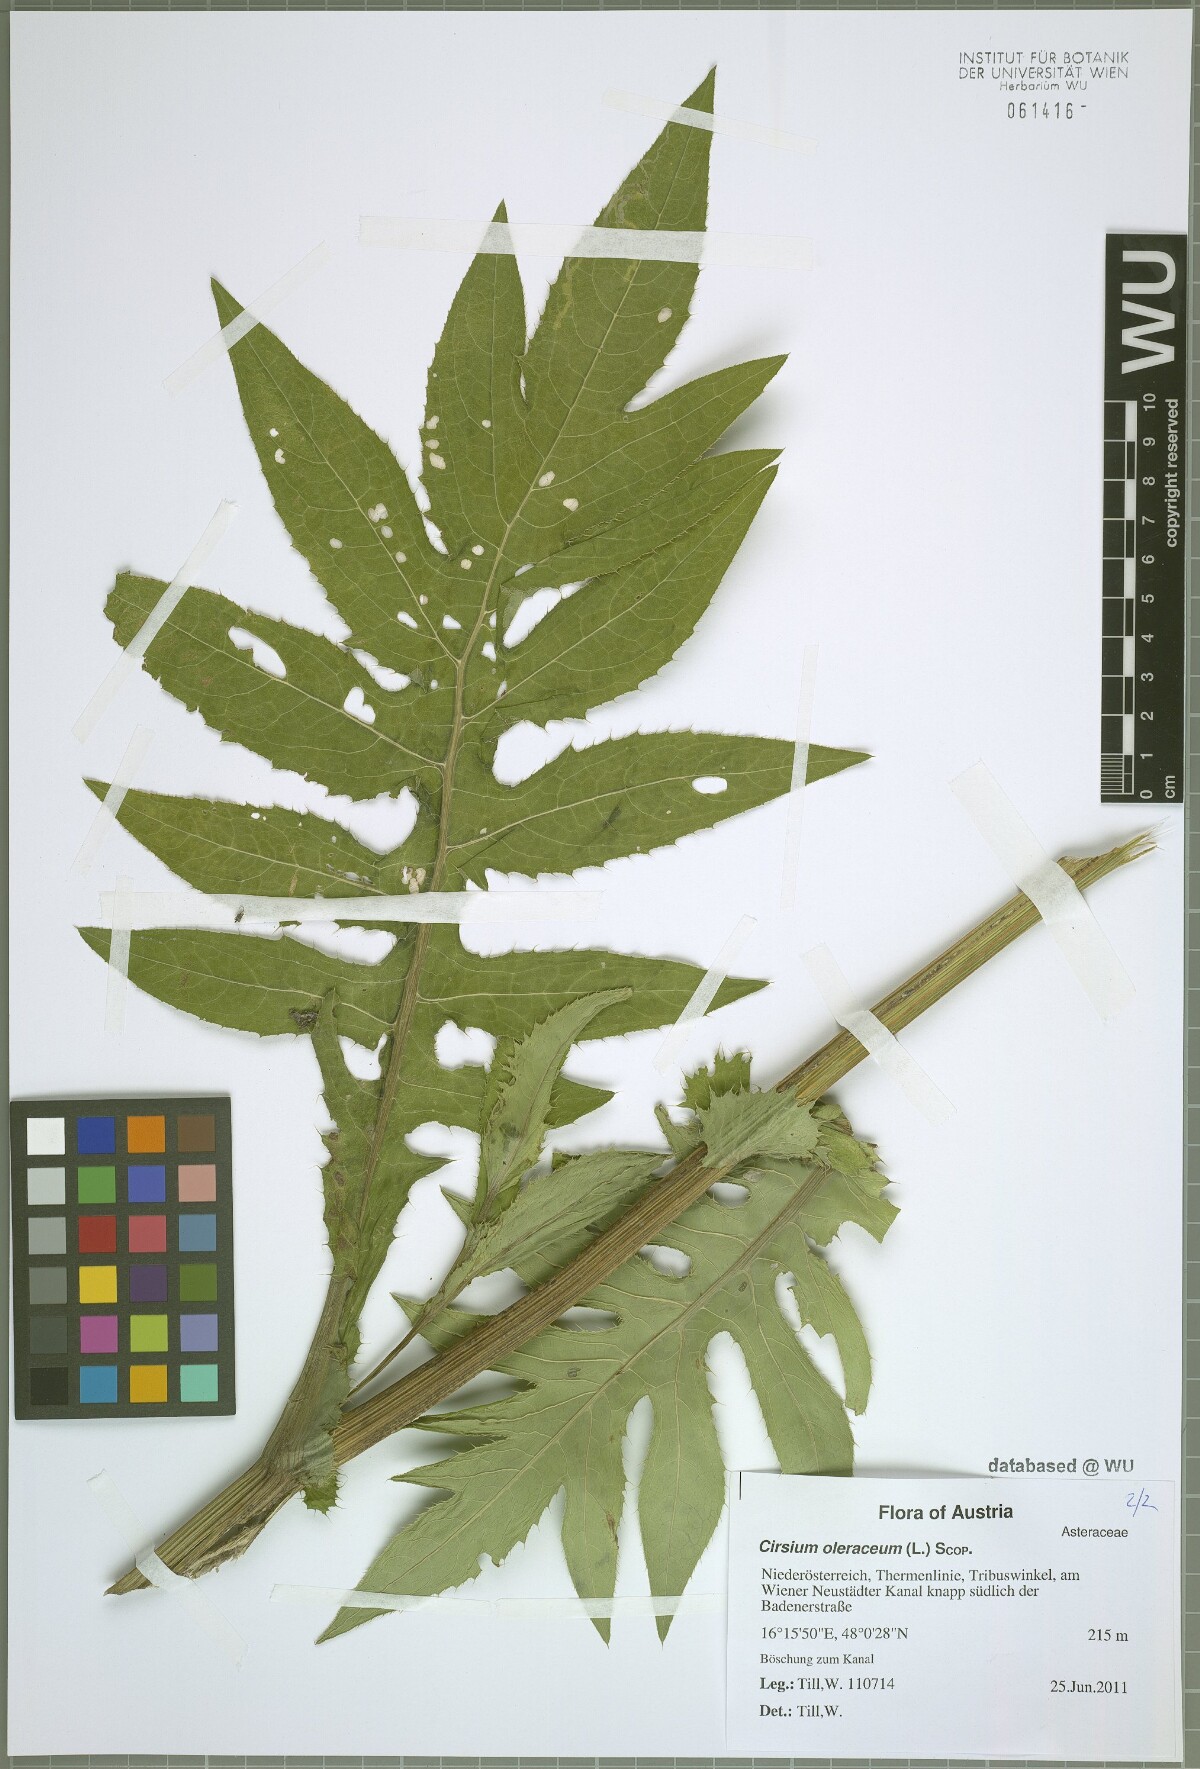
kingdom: Plantae
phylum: Tracheophyta
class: Magnoliopsida
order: Asterales
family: Asteraceae
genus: Cirsium
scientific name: Cirsium oleraceum
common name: Cabbage thistle
